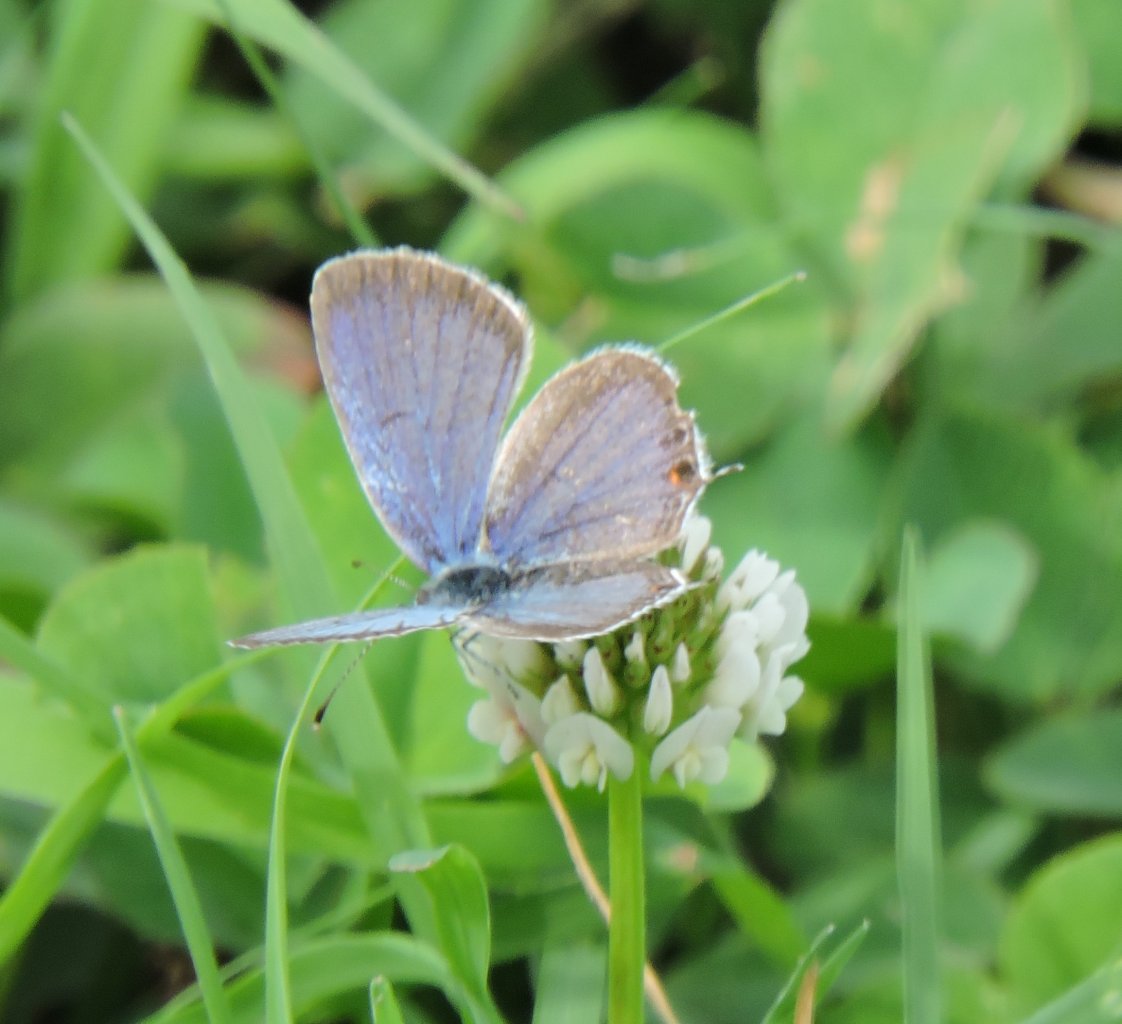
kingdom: Animalia
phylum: Arthropoda
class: Insecta
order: Lepidoptera
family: Lycaenidae
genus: Elkalyce
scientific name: Elkalyce comyntas
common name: Eastern Tailed-Blue
